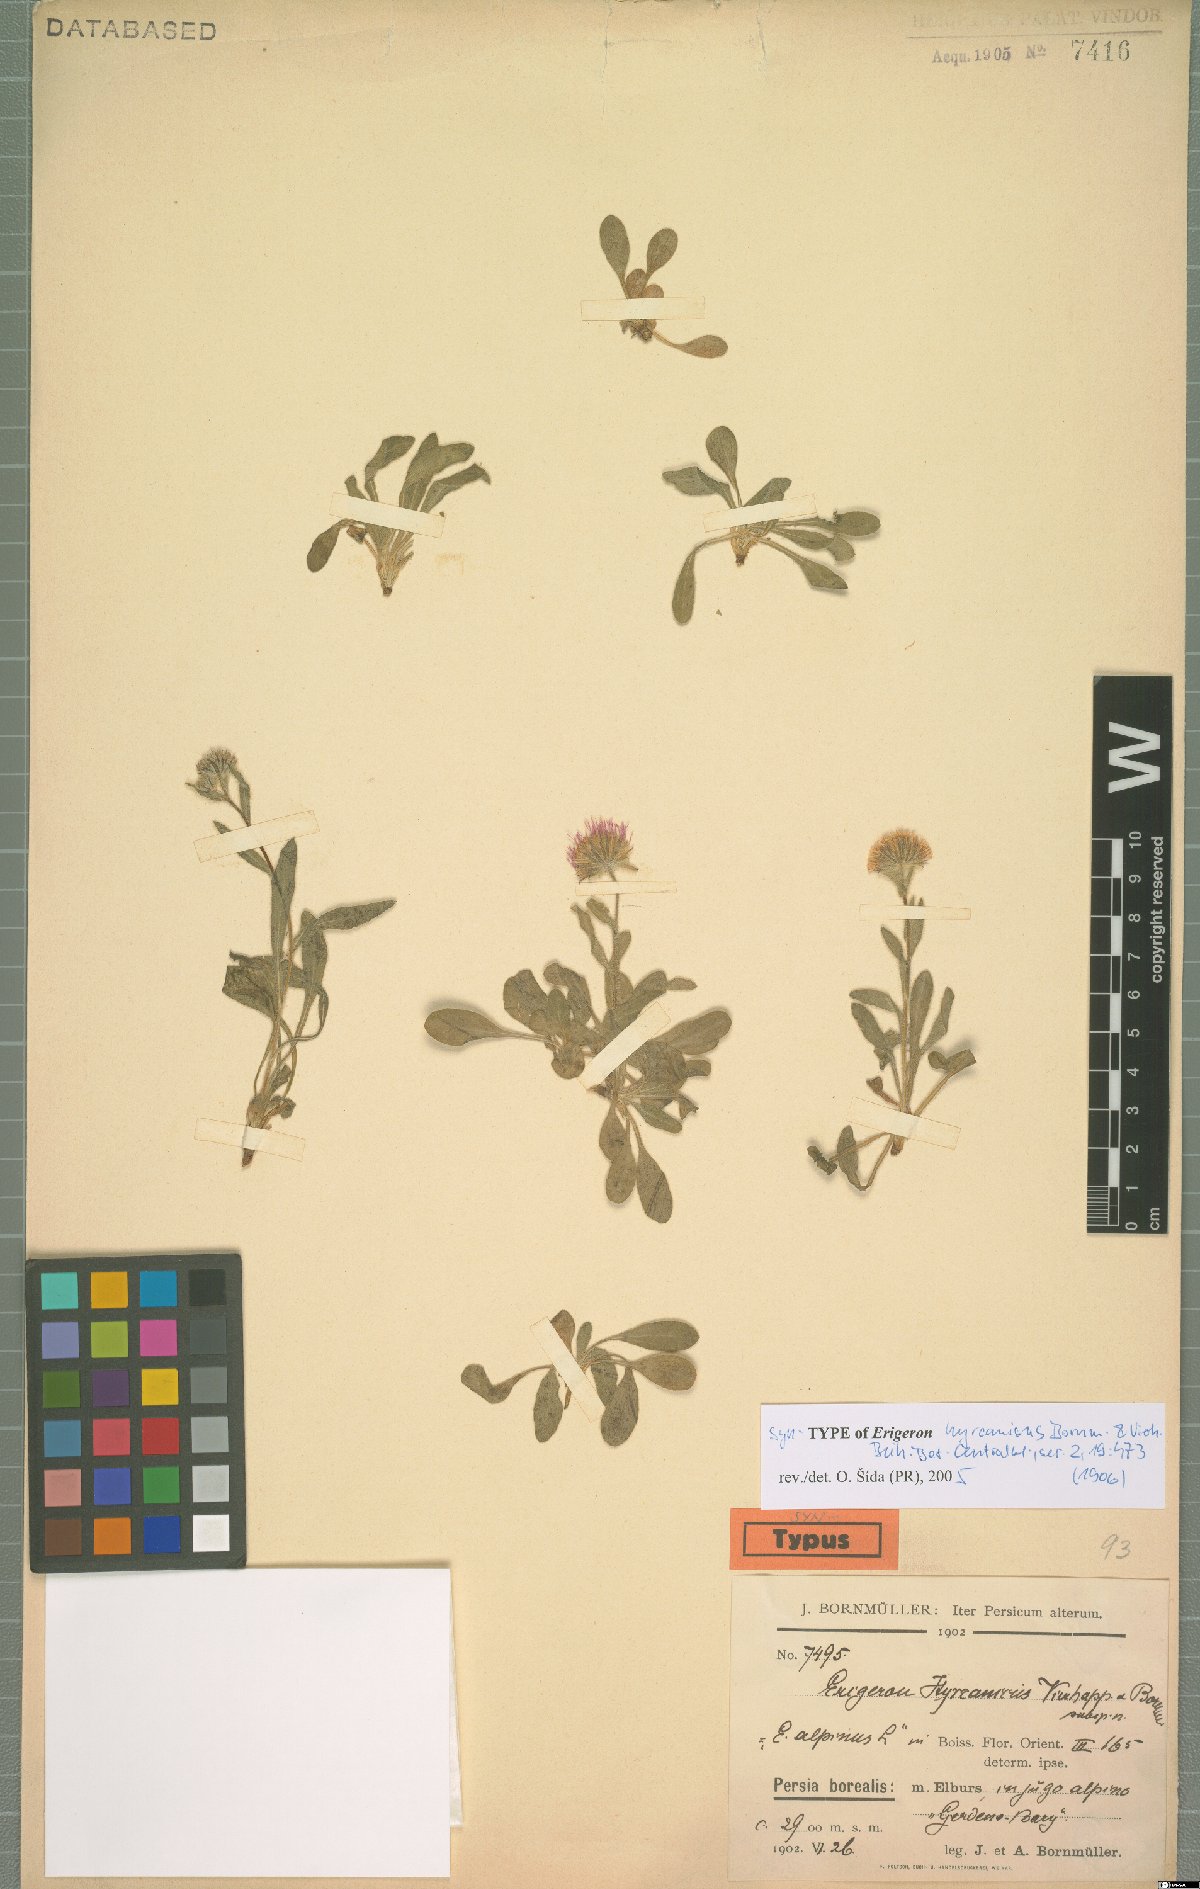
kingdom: Plantae
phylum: Tracheophyta
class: Magnoliopsida
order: Asterales
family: Asteraceae
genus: Erigeron
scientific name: Erigeron hyrcanicus
